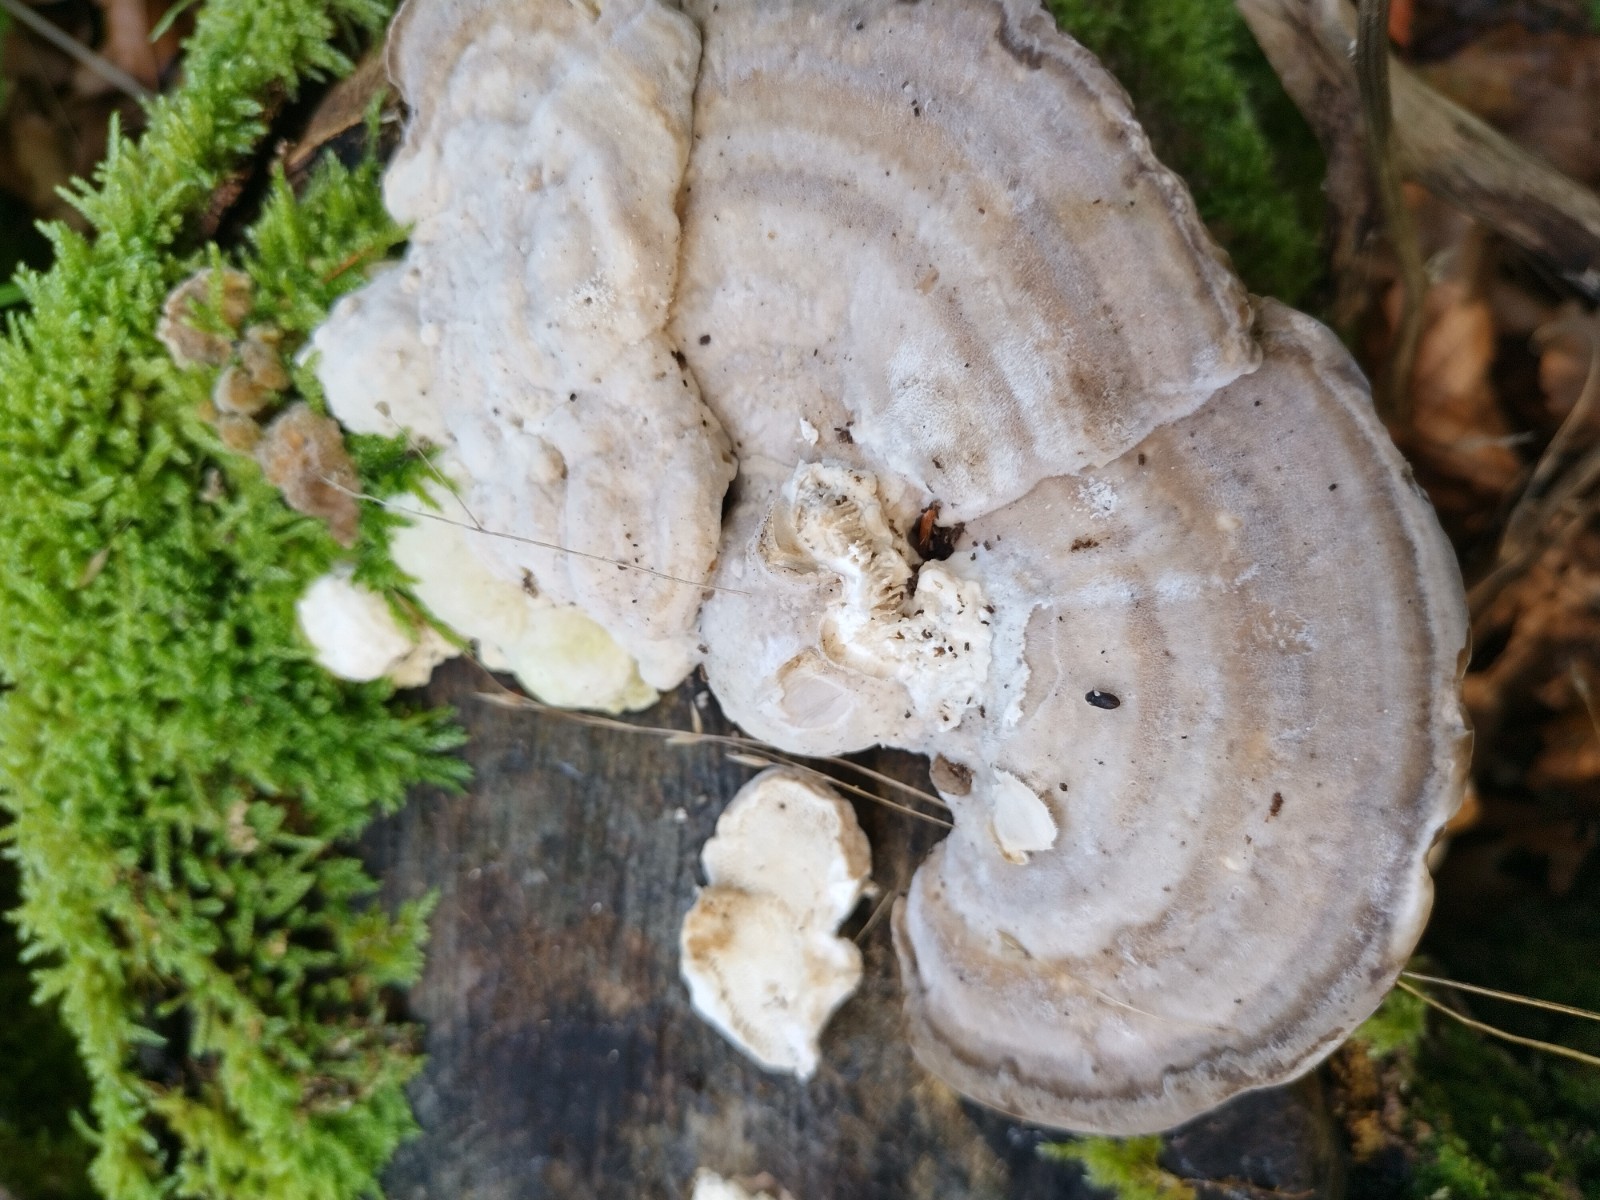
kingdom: Fungi
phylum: Basidiomycota
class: Agaricomycetes
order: Polyporales
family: Polyporaceae
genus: Trametes
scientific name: Trametes gibbosa
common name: puklet læderporesvamp
